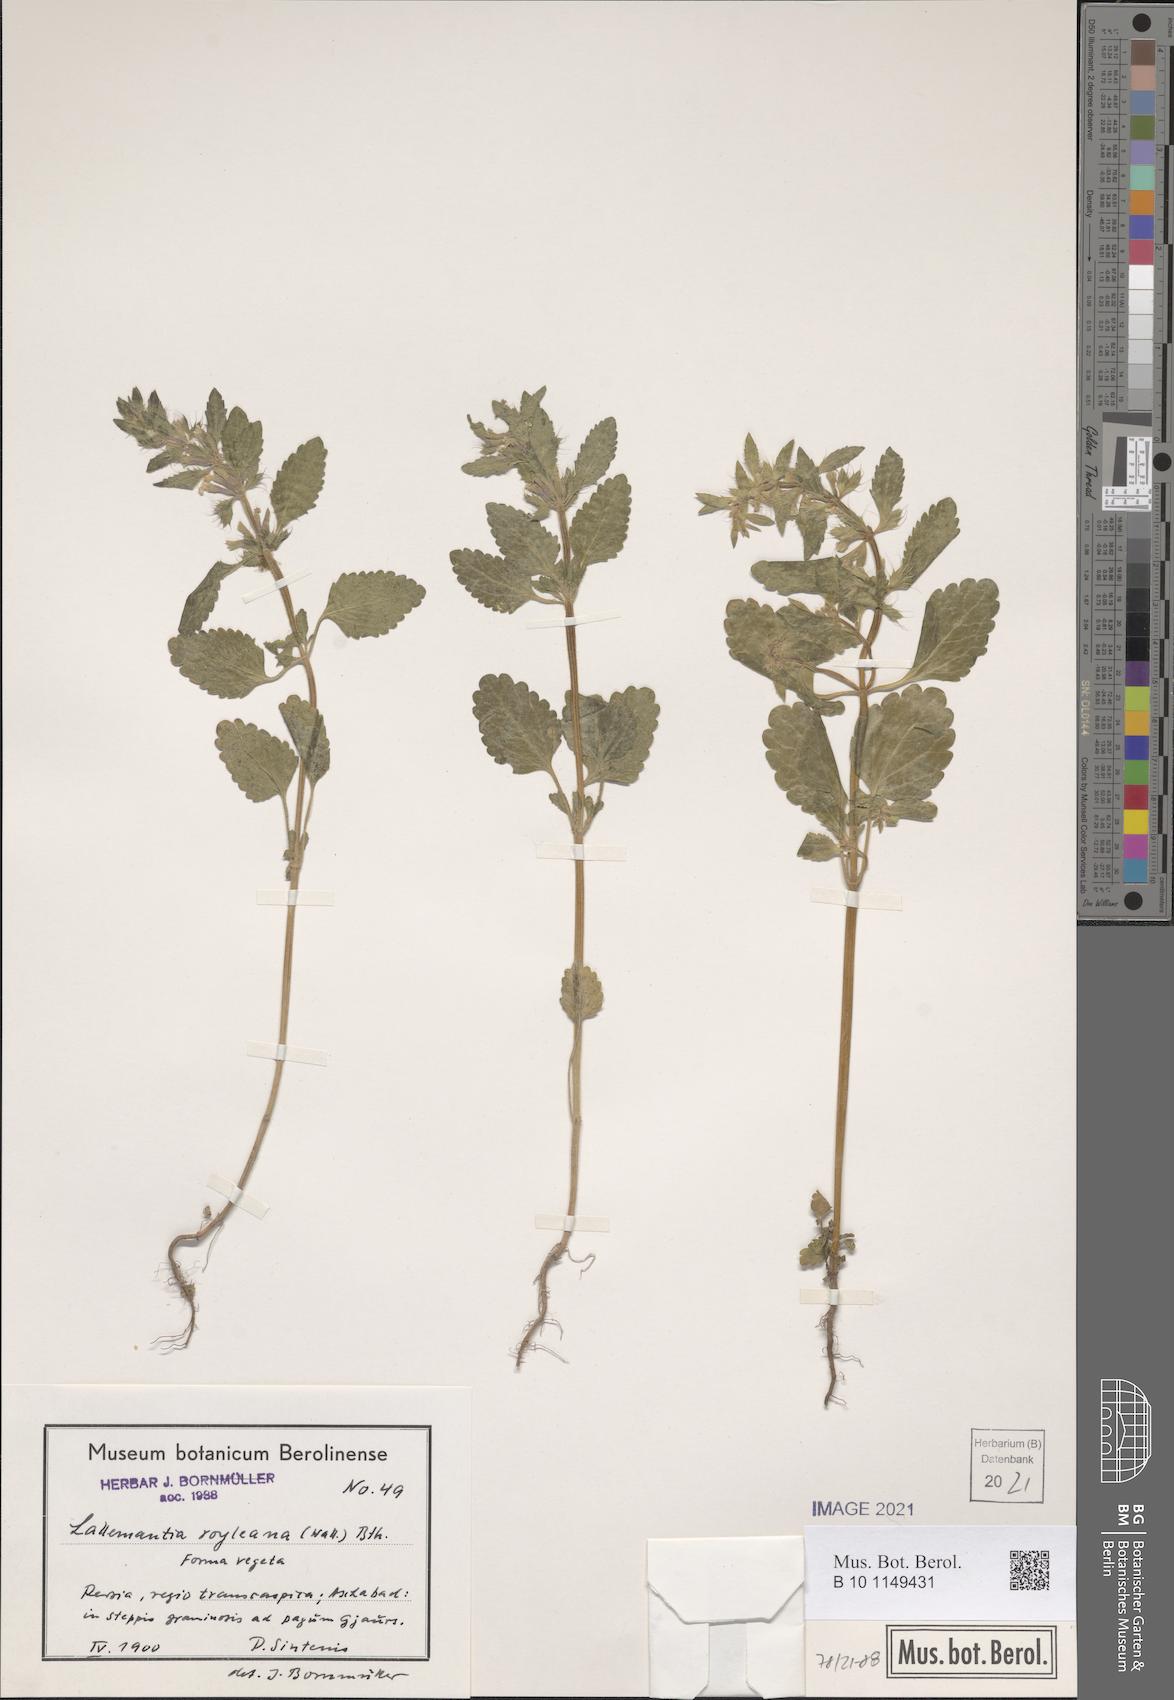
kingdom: Plantae
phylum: Tracheophyta
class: Magnoliopsida
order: Lamiales
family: Lamiaceae
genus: Lallemantia
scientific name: Lallemantia royleana
